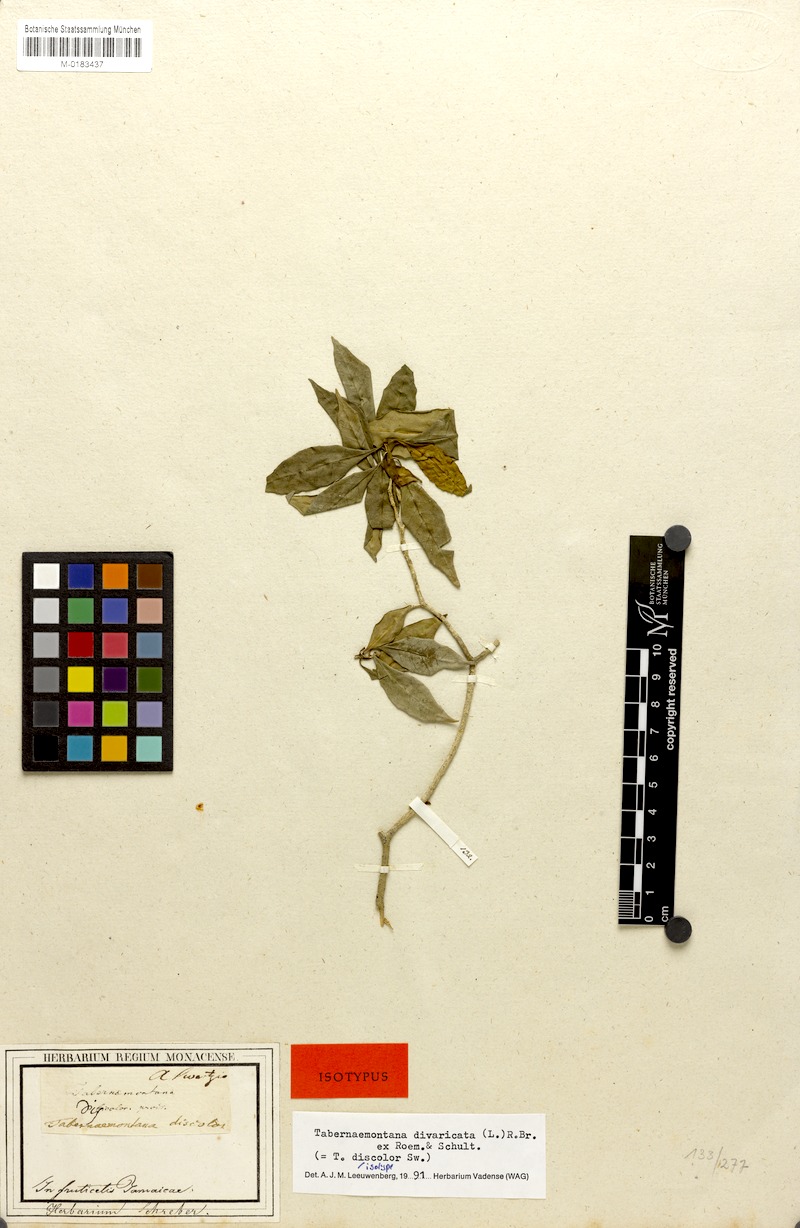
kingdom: Plantae
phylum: Tracheophyta
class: Magnoliopsida
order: Gentianales
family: Apocynaceae
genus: Tabernaemontana
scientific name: Tabernaemontana divaricata
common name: Pinwheelflower
